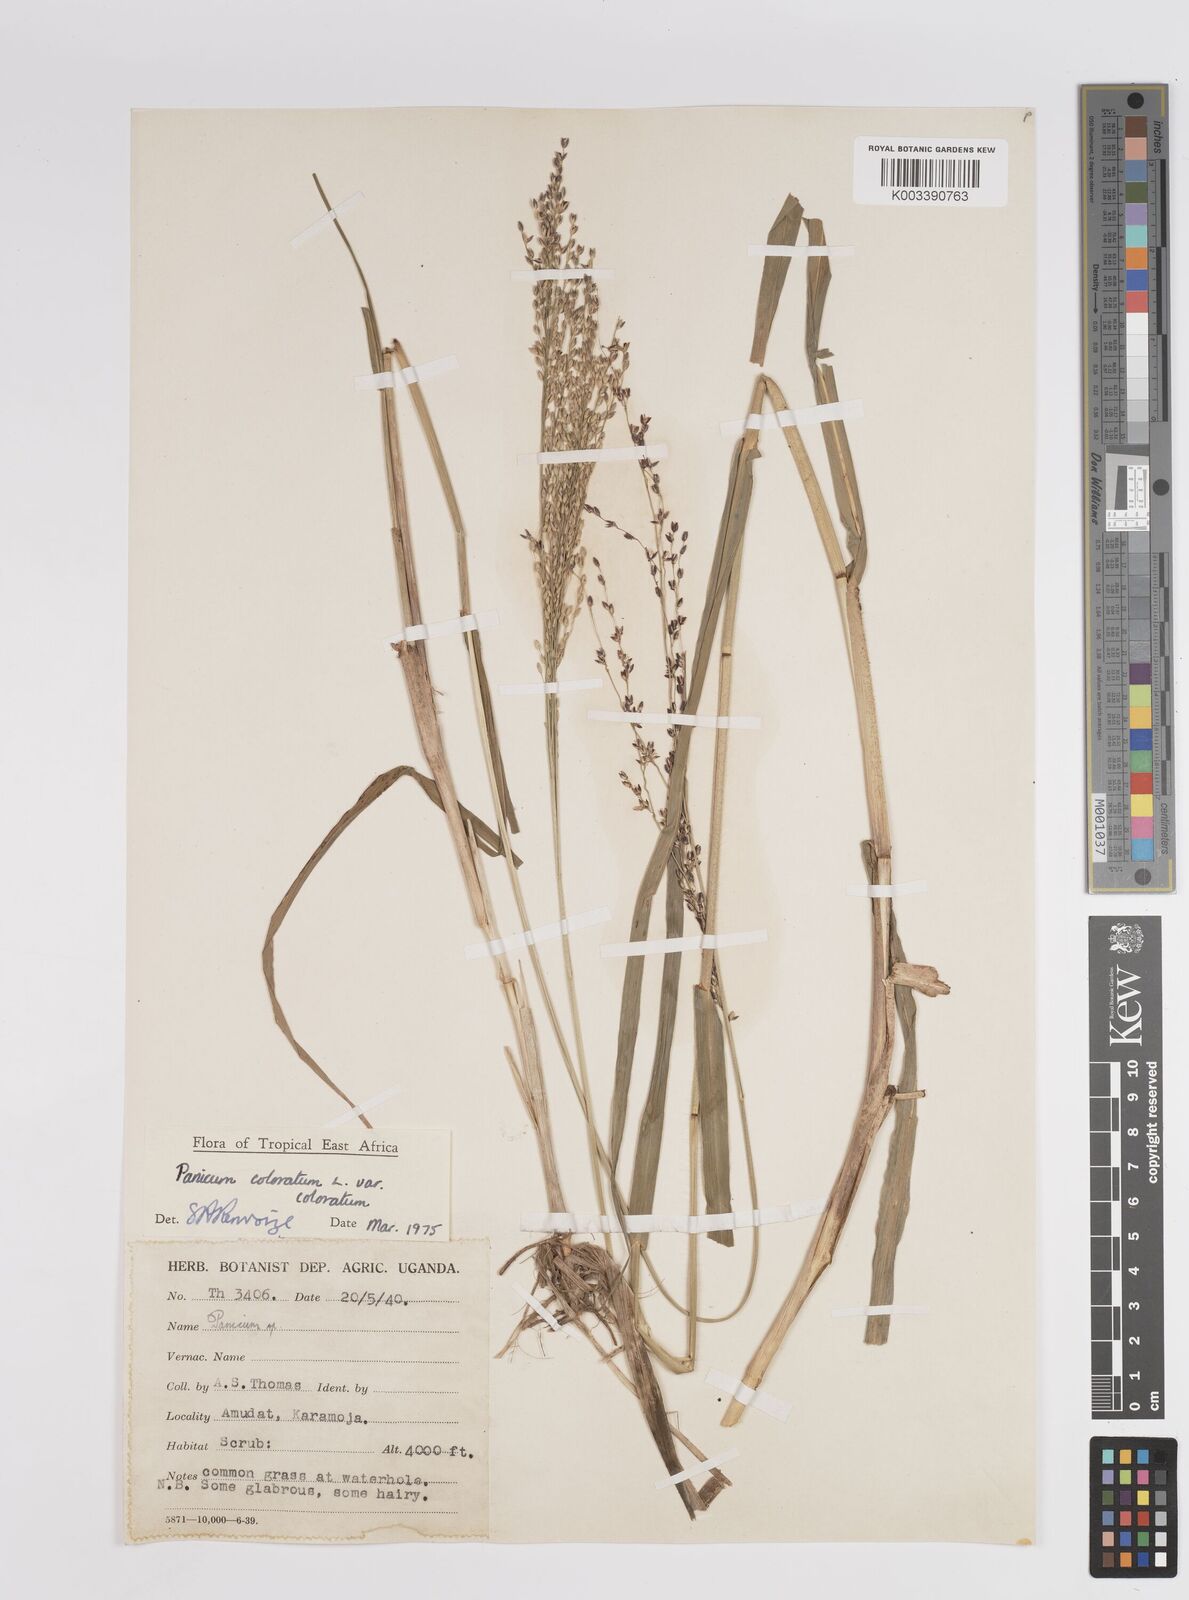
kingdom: Plantae
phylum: Tracheophyta
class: Liliopsida
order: Poales
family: Poaceae
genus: Panicum
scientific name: Panicum coloratum
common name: Kleingrass
